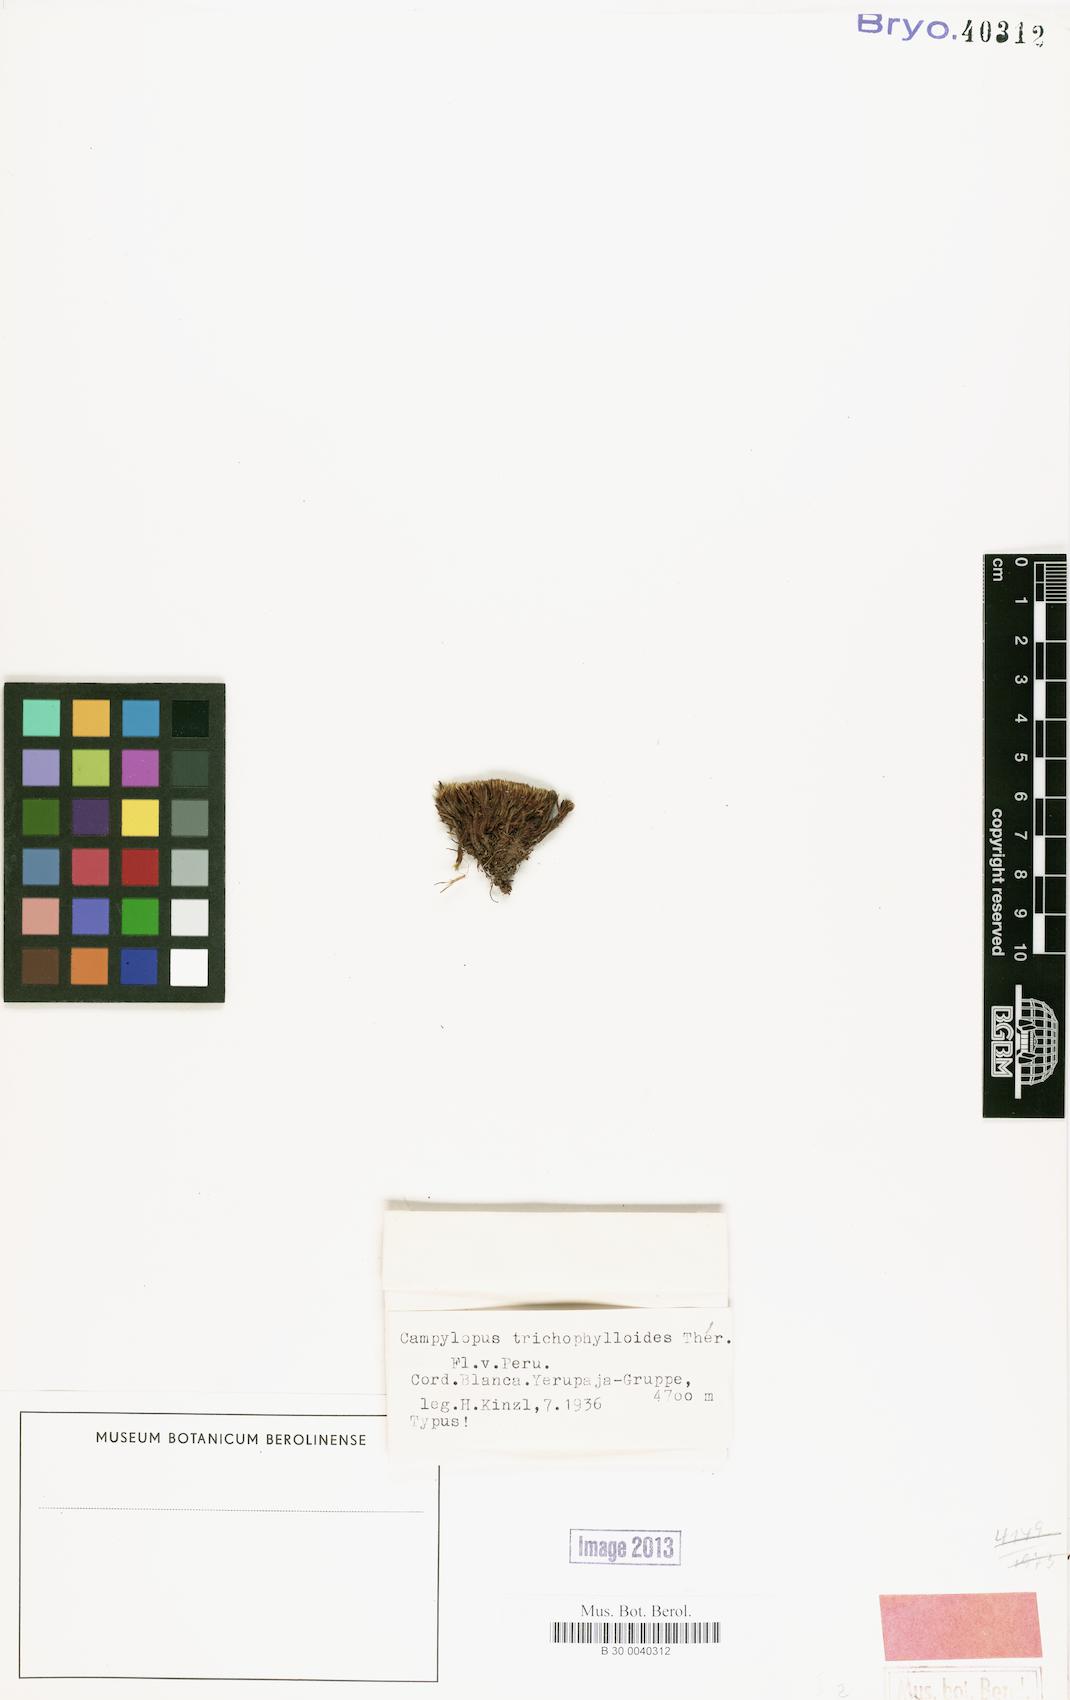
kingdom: Plantae
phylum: Bryophyta
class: Bryopsida
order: Dicranales
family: Leucobryaceae
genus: Campylopus
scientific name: Campylopus trichophylloides
